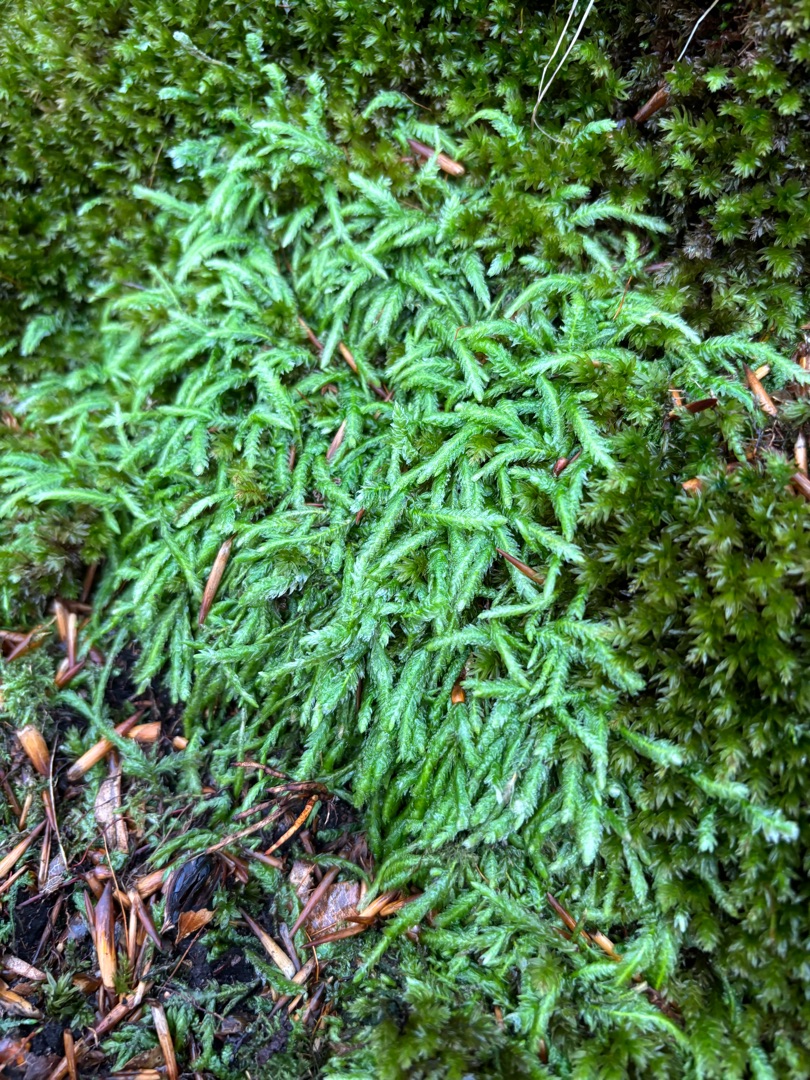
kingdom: Plantae
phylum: Bryophyta
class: Bryopsida
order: Hypnales
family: Plagiotheciaceae
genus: Plagiothecium
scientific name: Plagiothecium undulatum
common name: Bølget tæppemos
